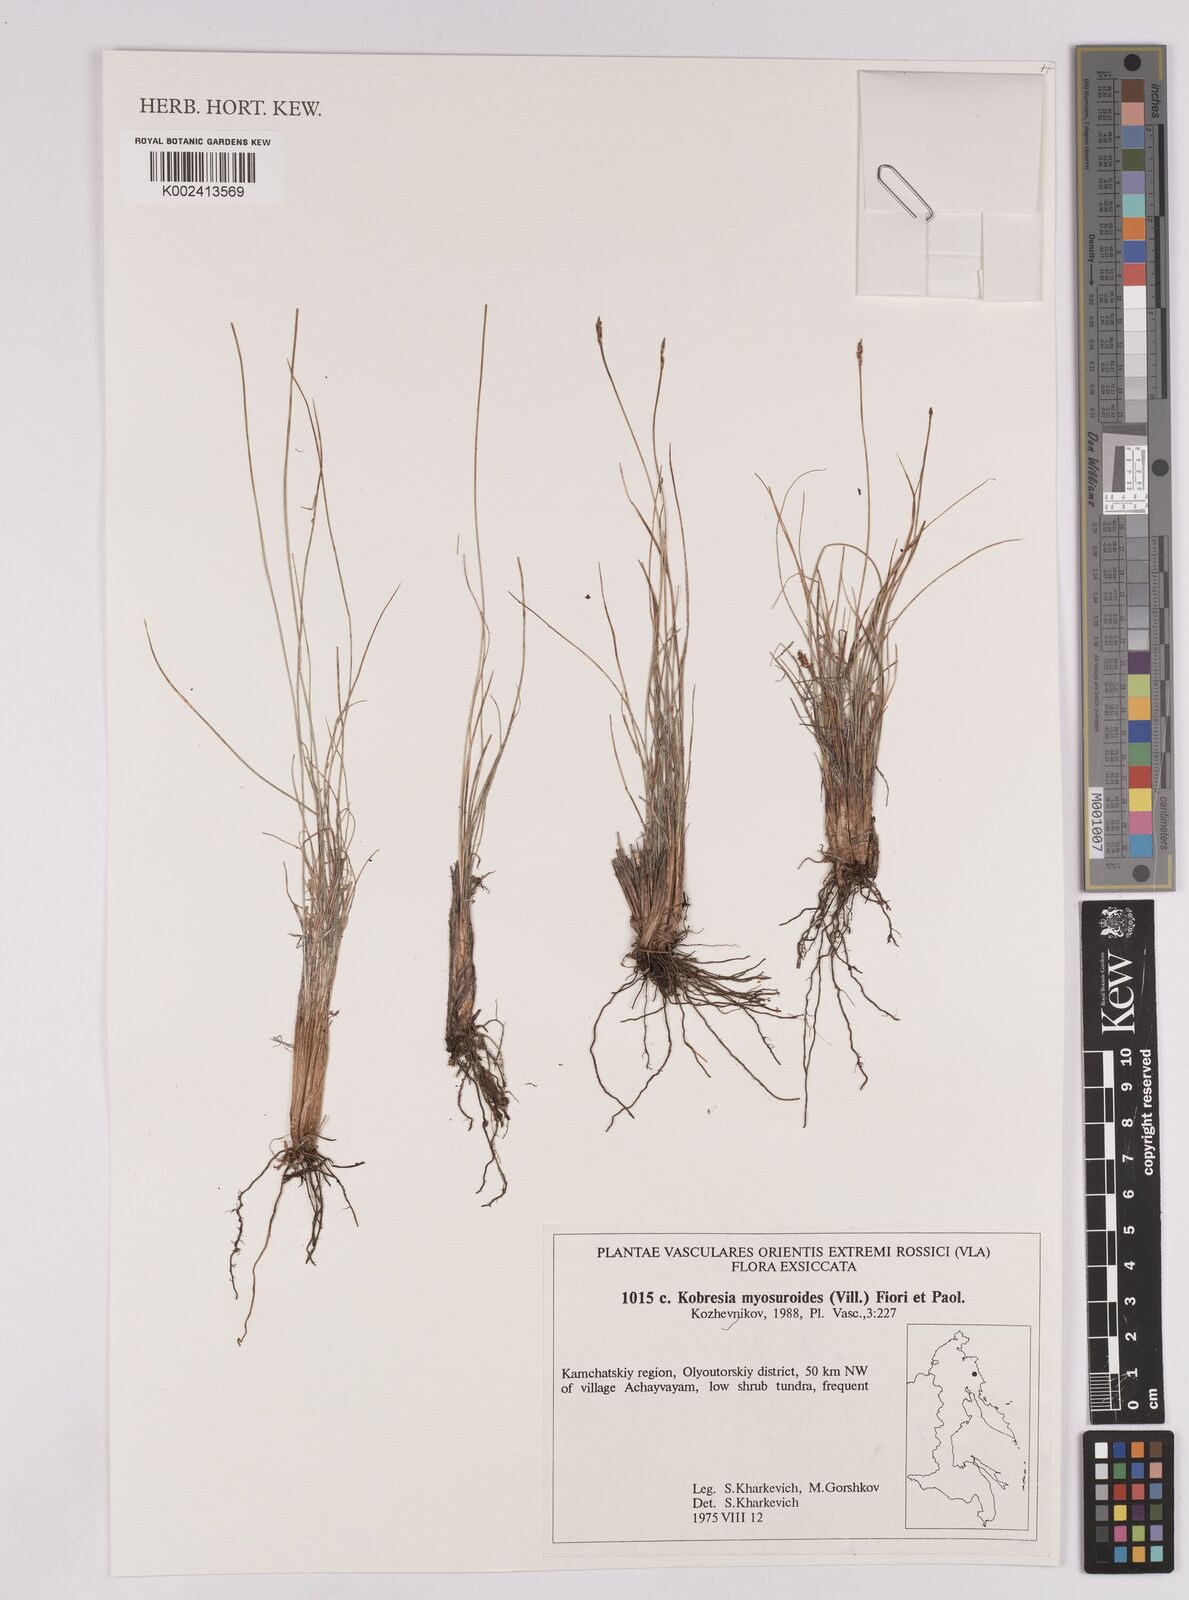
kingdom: Plantae
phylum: Tracheophyta
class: Liliopsida
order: Poales
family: Cyperaceae
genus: Carex
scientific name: Carex myosuroides
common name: Bellard's bog sedge
